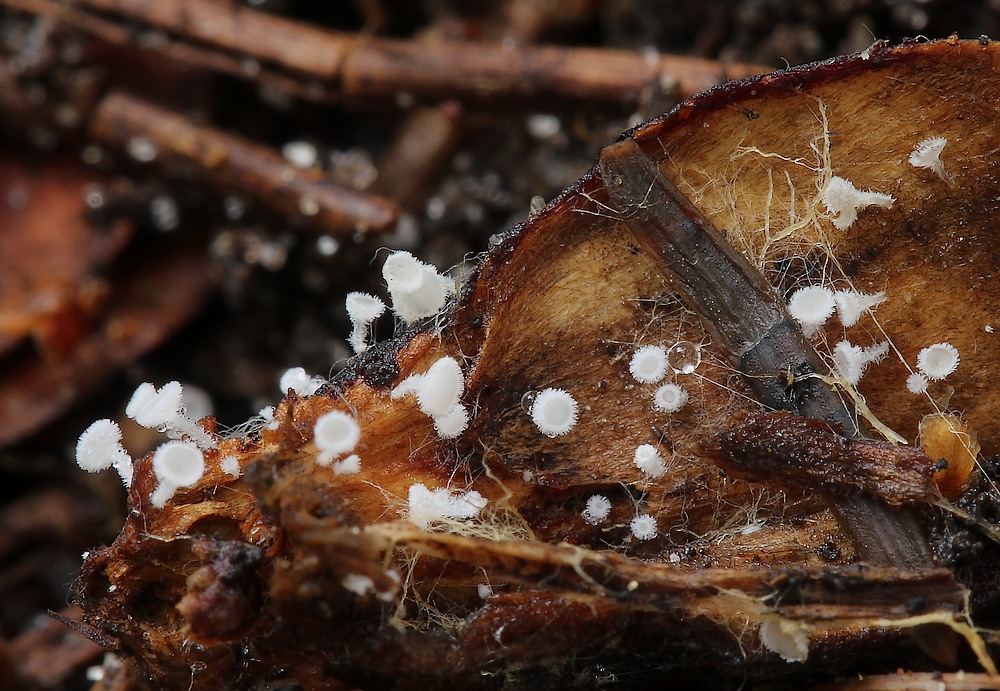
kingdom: Fungi
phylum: Ascomycota
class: Leotiomycetes
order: Helotiales
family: Lachnaceae
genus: Lachnum
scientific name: Lachnum virgineum
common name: jomfru-frynseskive
